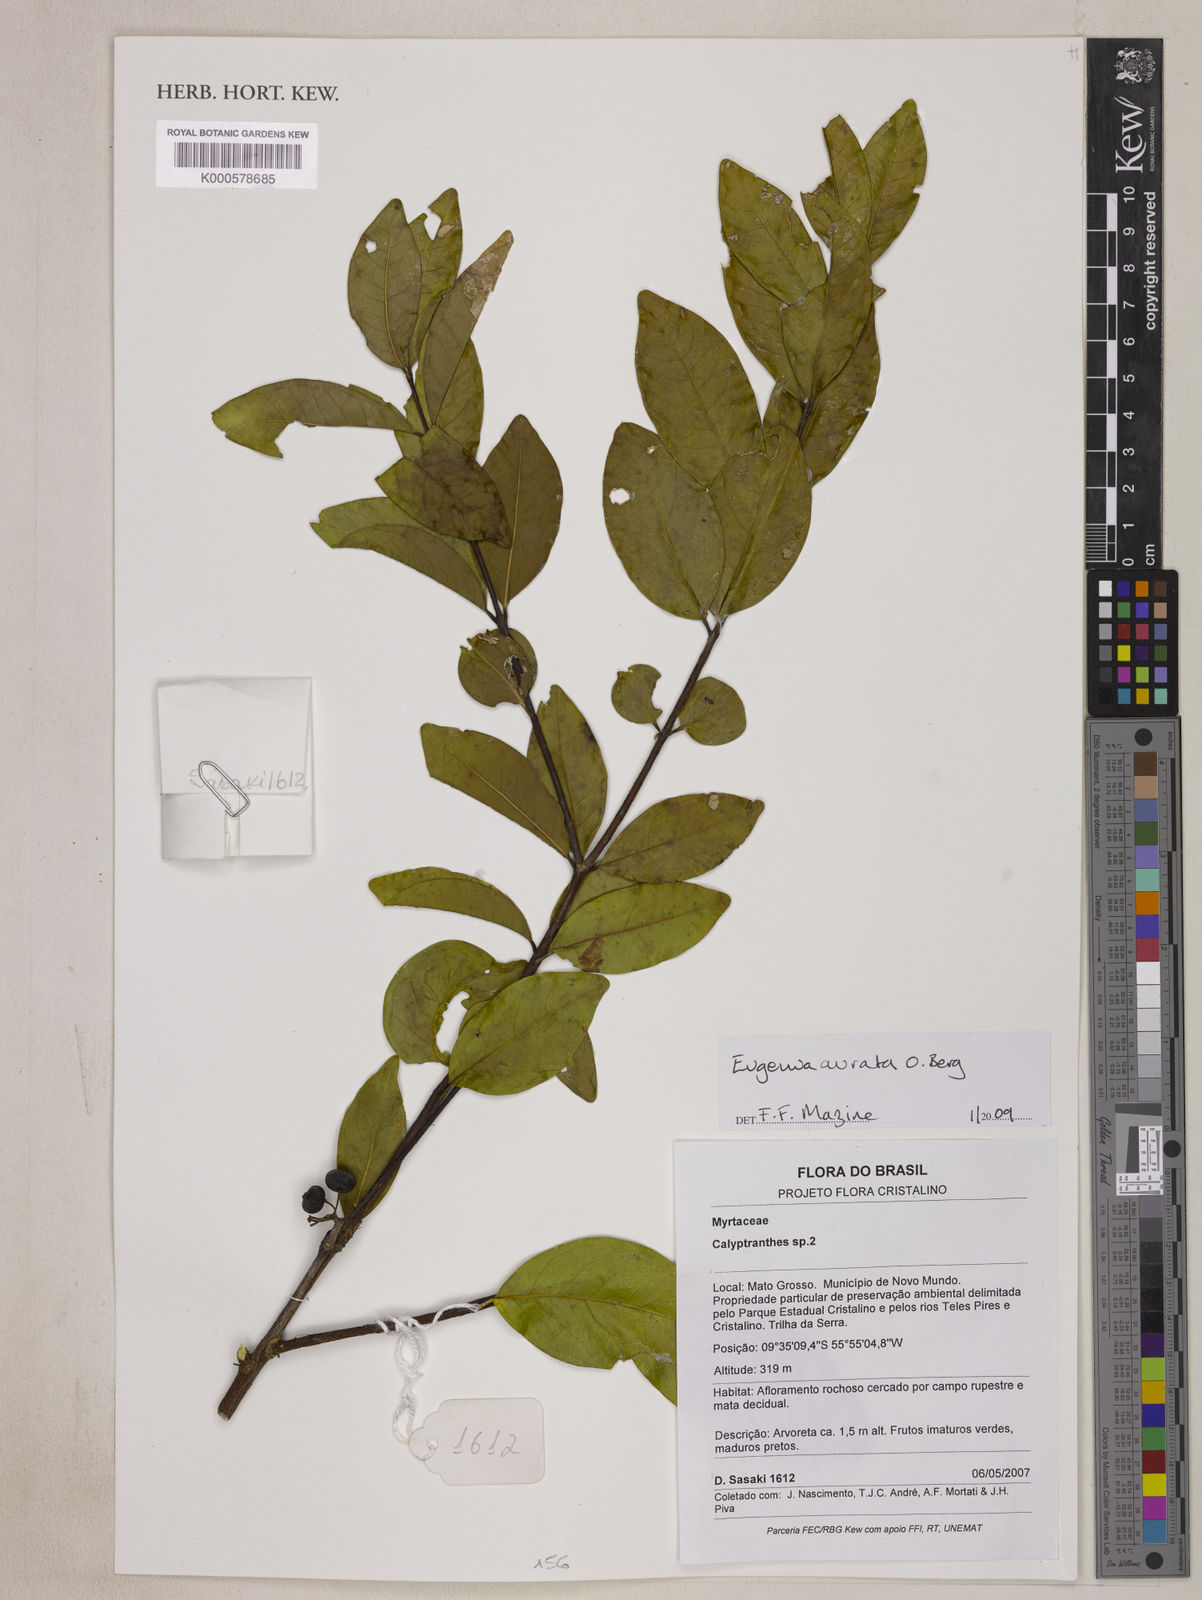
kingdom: Plantae
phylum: Tracheophyta
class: Magnoliopsida
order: Myrtales
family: Myrtaceae
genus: Eugenia
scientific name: Eugenia aurata
